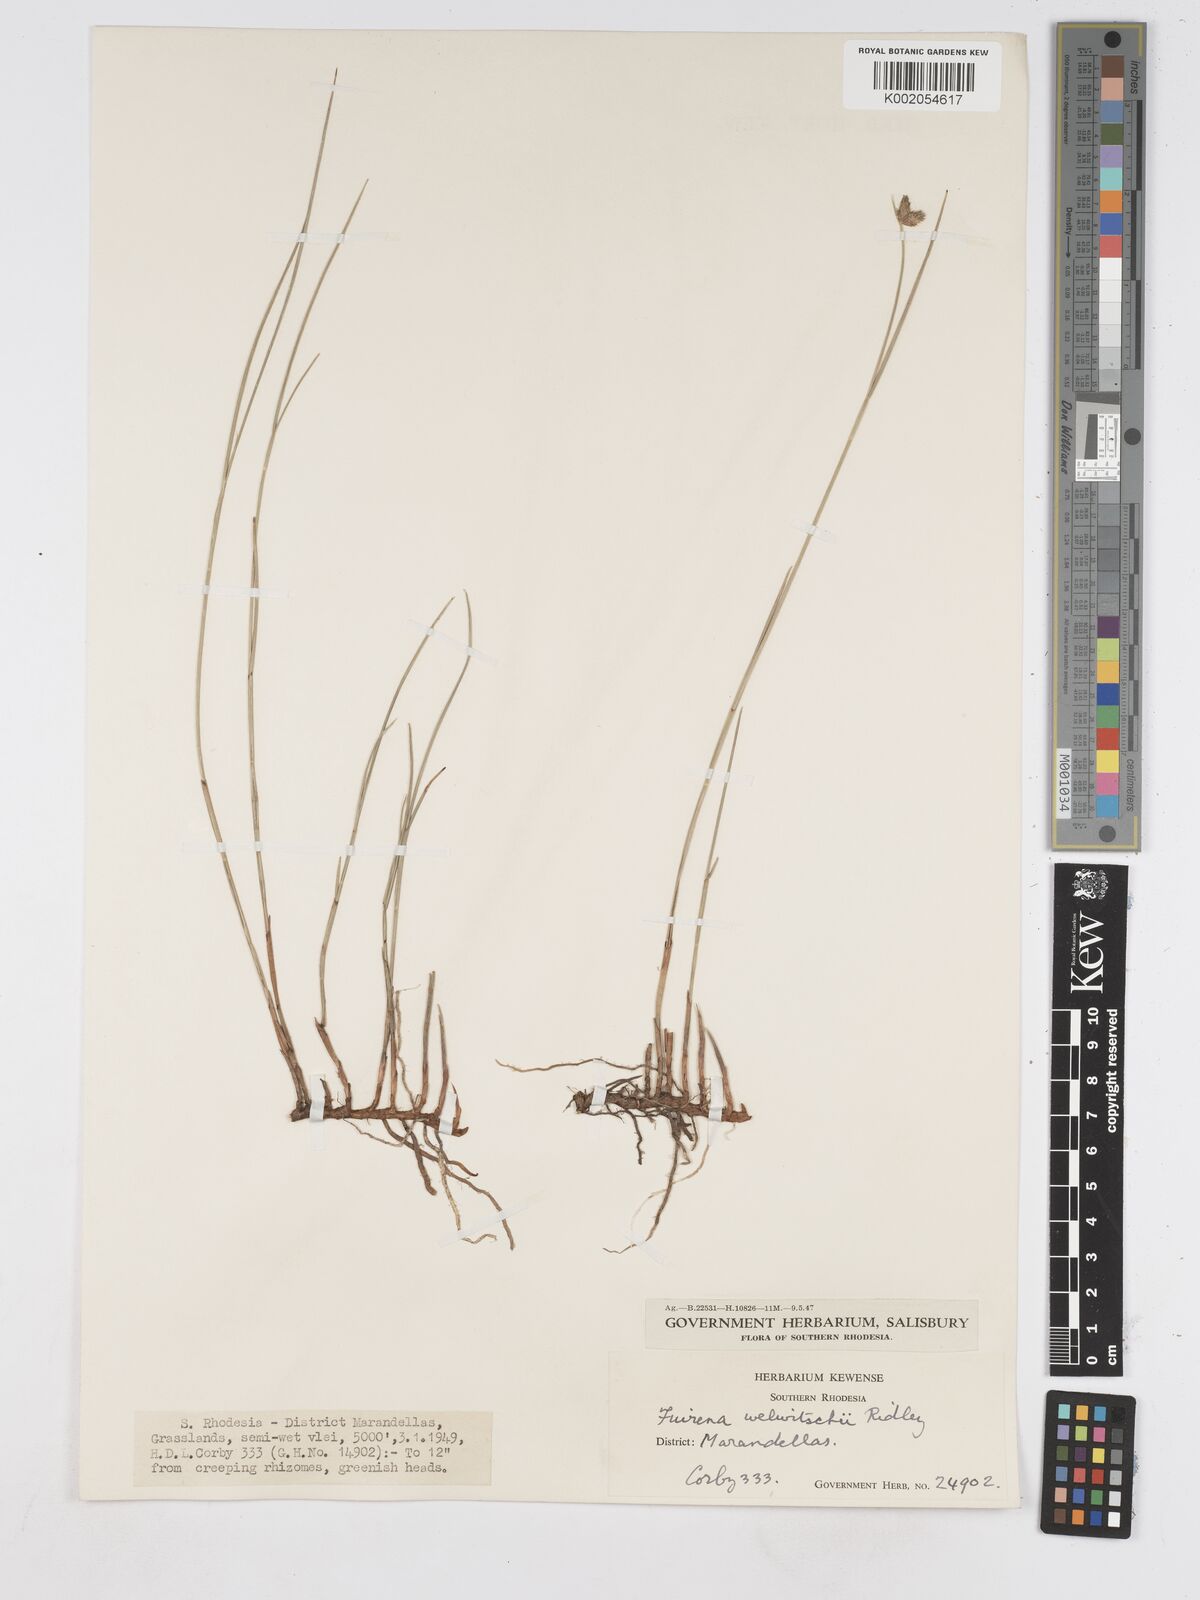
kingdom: Plantae
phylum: Tracheophyta
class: Liliopsida
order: Poales
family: Cyperaceae
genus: Fuirena
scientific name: Fuirena welwitschii
